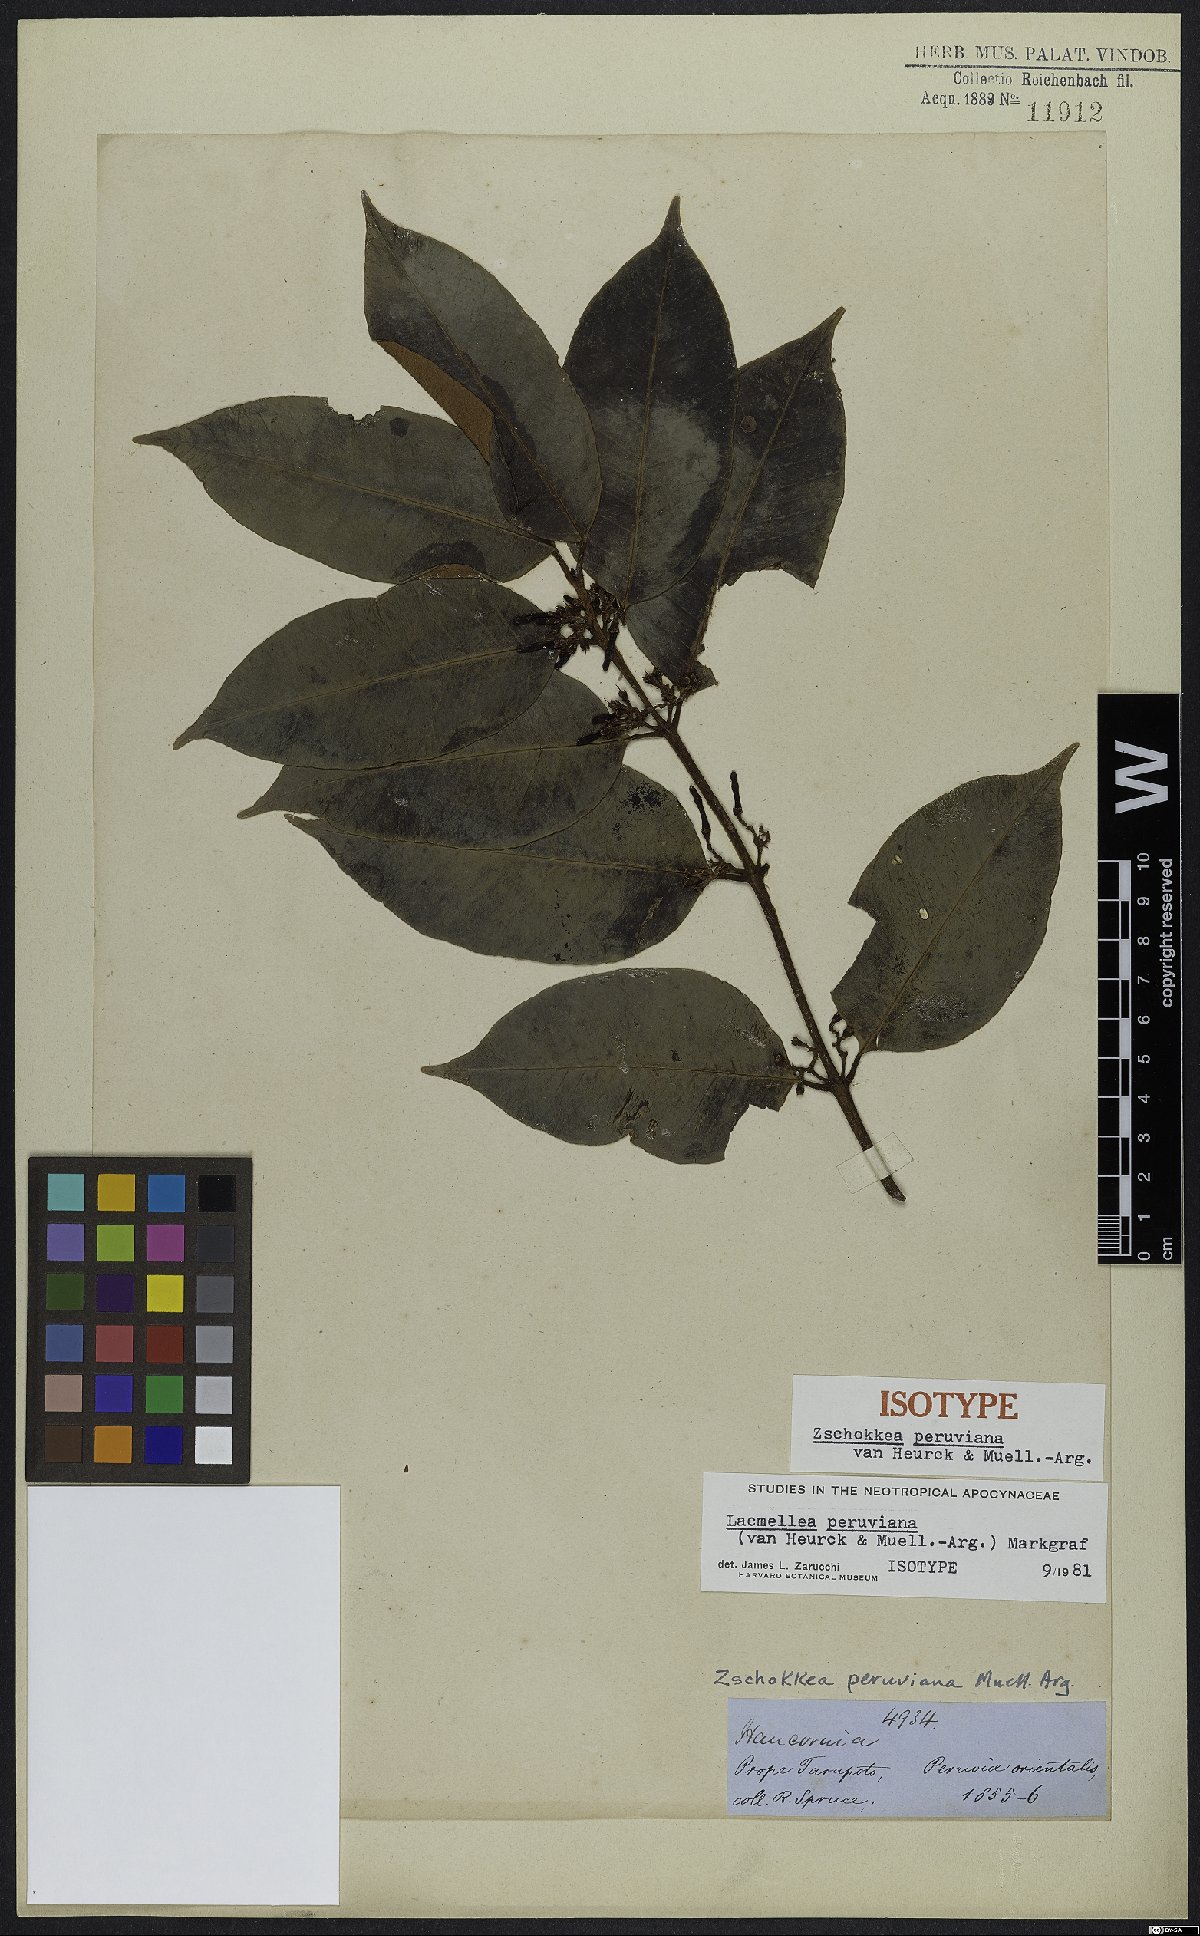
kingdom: Plantae
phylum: Tracheophyta
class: Magnoliopsida
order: Gentianales
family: Apocynaceae
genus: Lacmellea
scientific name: Lacmellea arborescens
